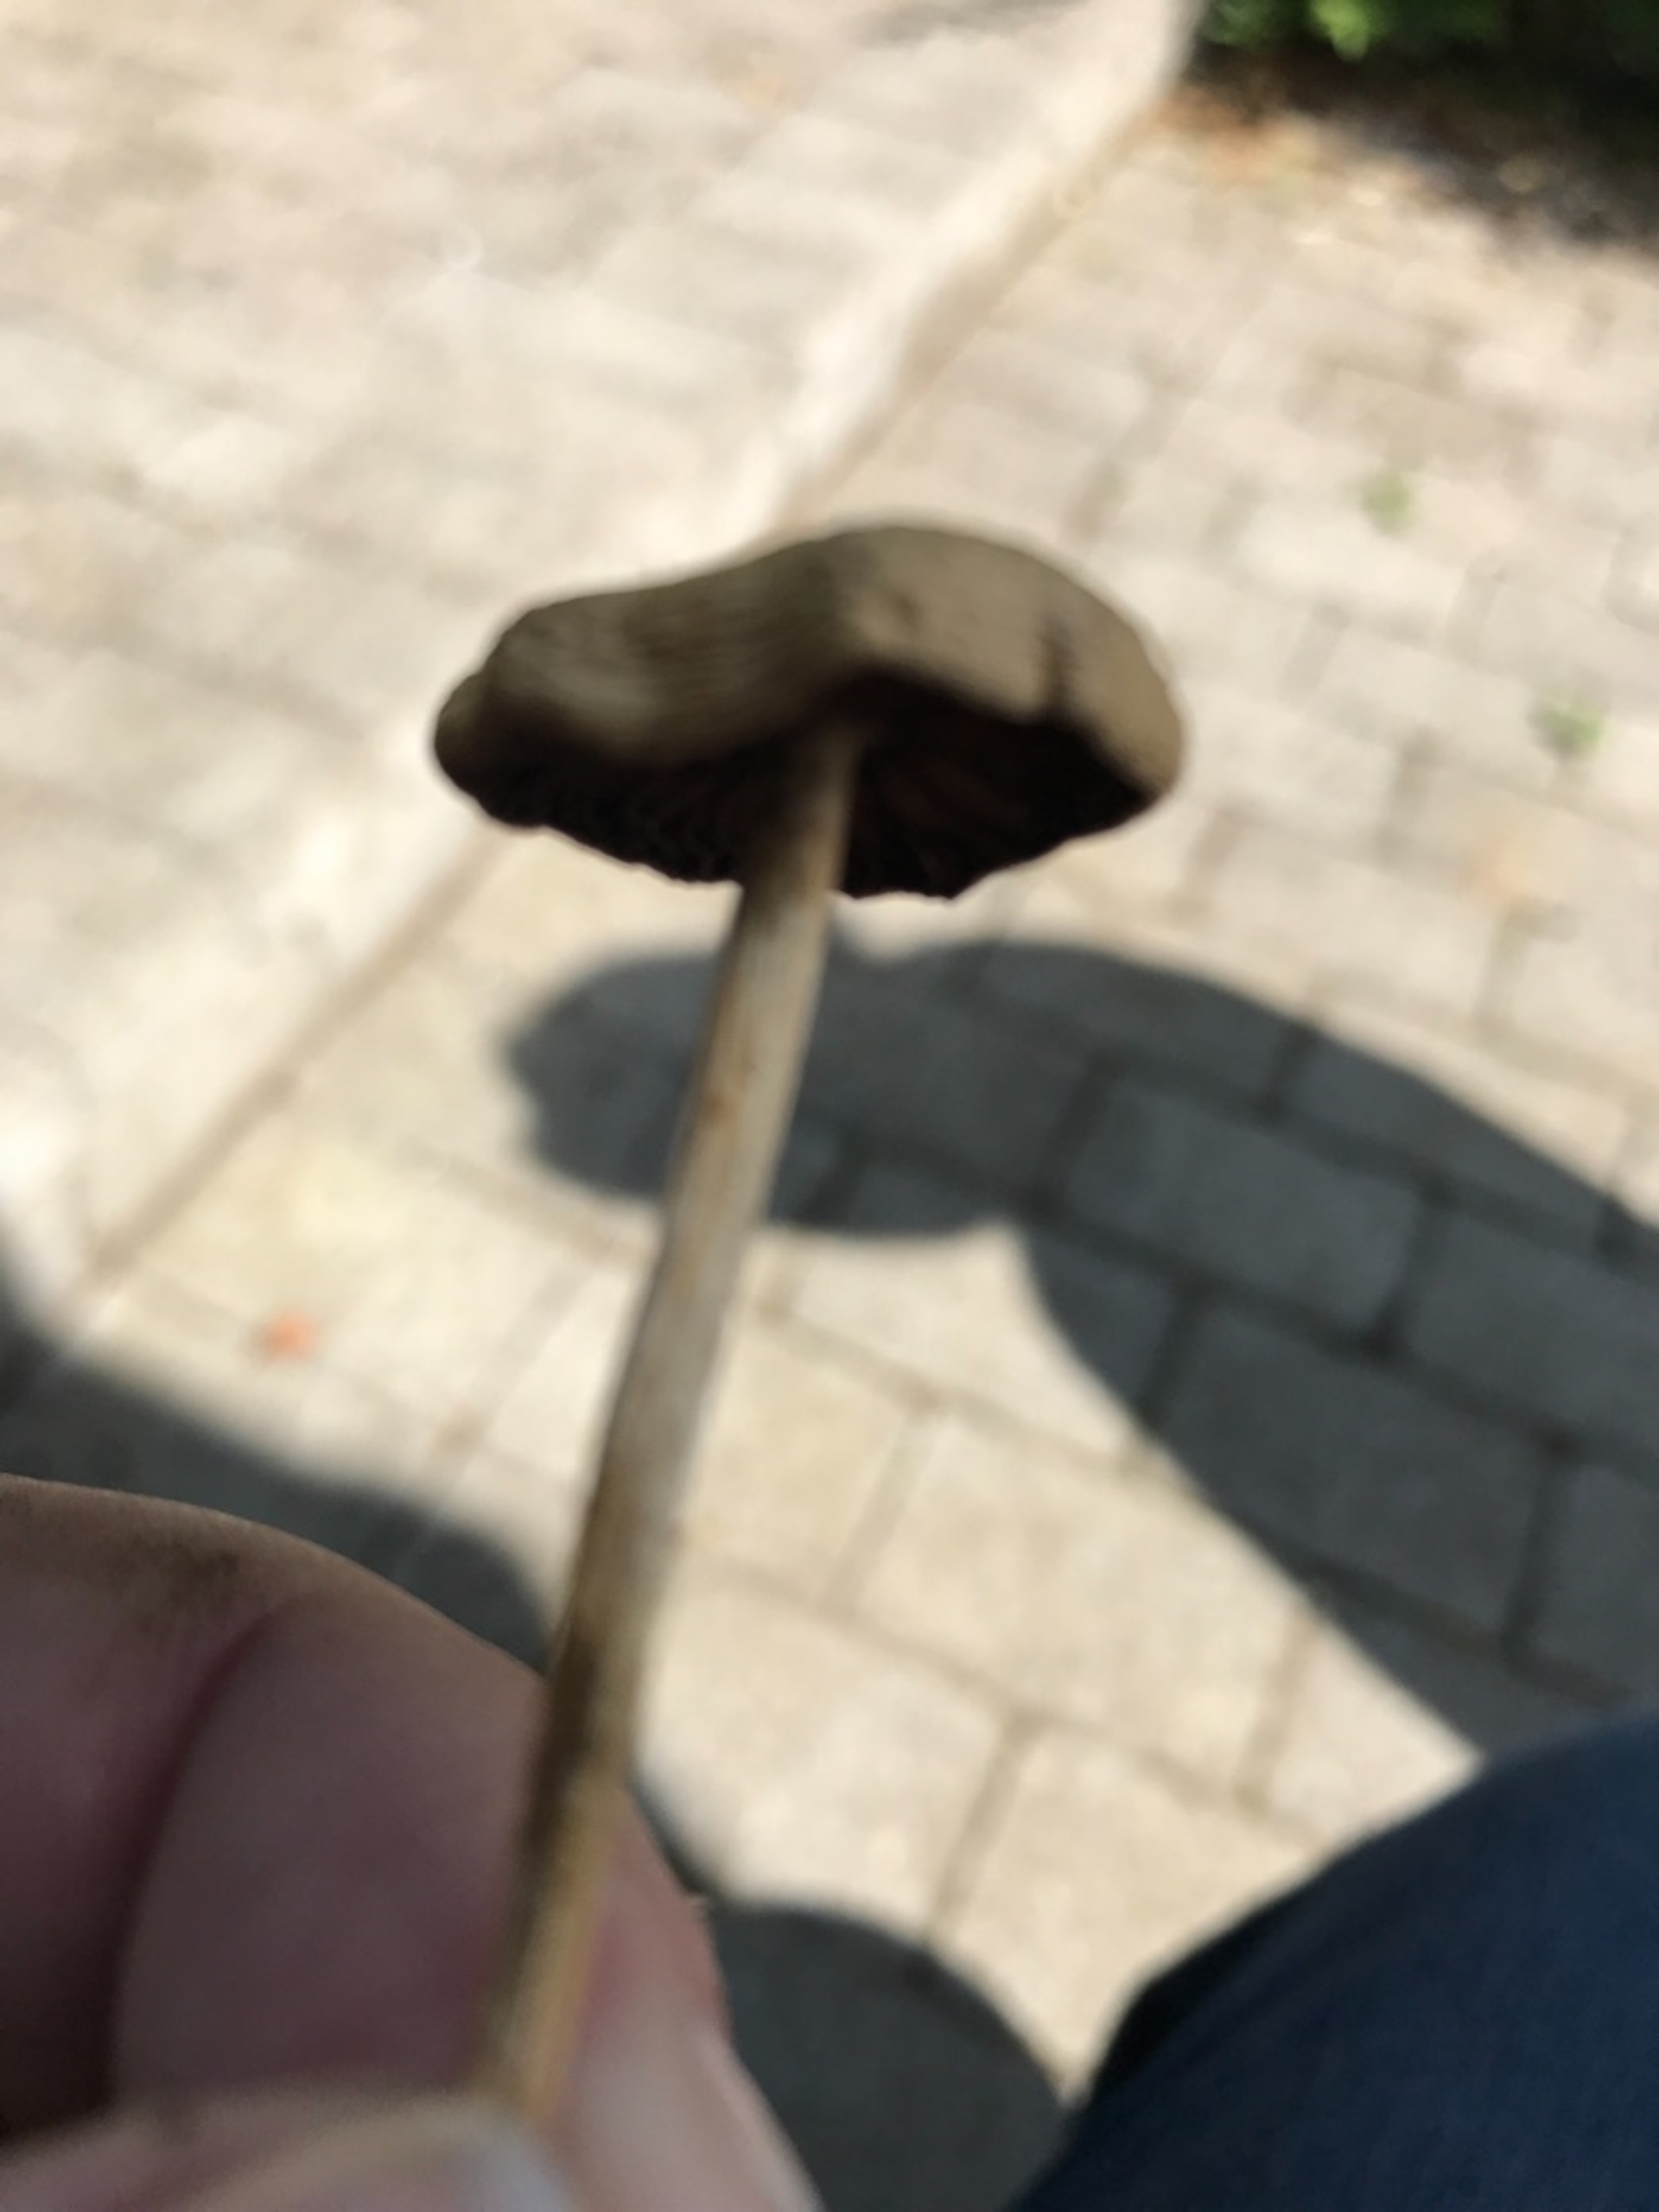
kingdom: Fungi
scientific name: Fungi
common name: Svamperiget
